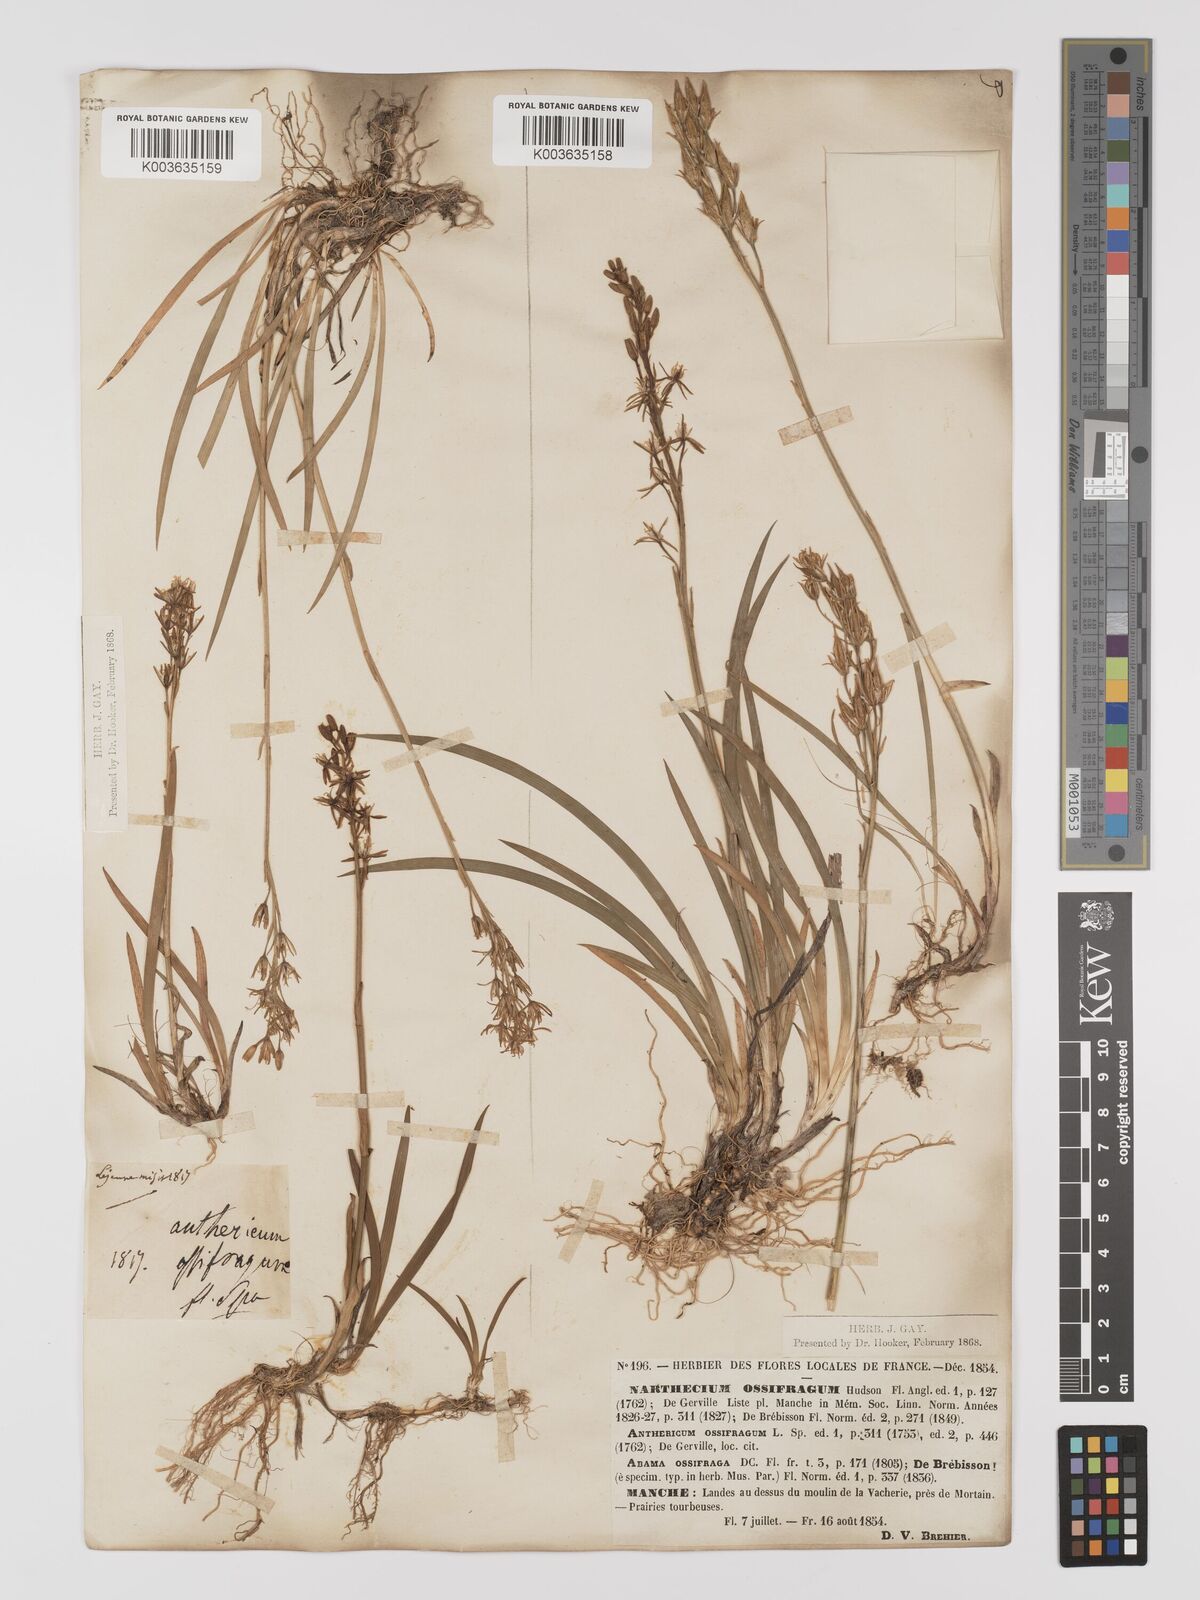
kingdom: Plantae
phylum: Tracheophyta
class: Liliopsida
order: Dioscoreales
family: Nartheciaceae
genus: Narthecium
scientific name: Narthecium ossifragum
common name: Bog asphodel
